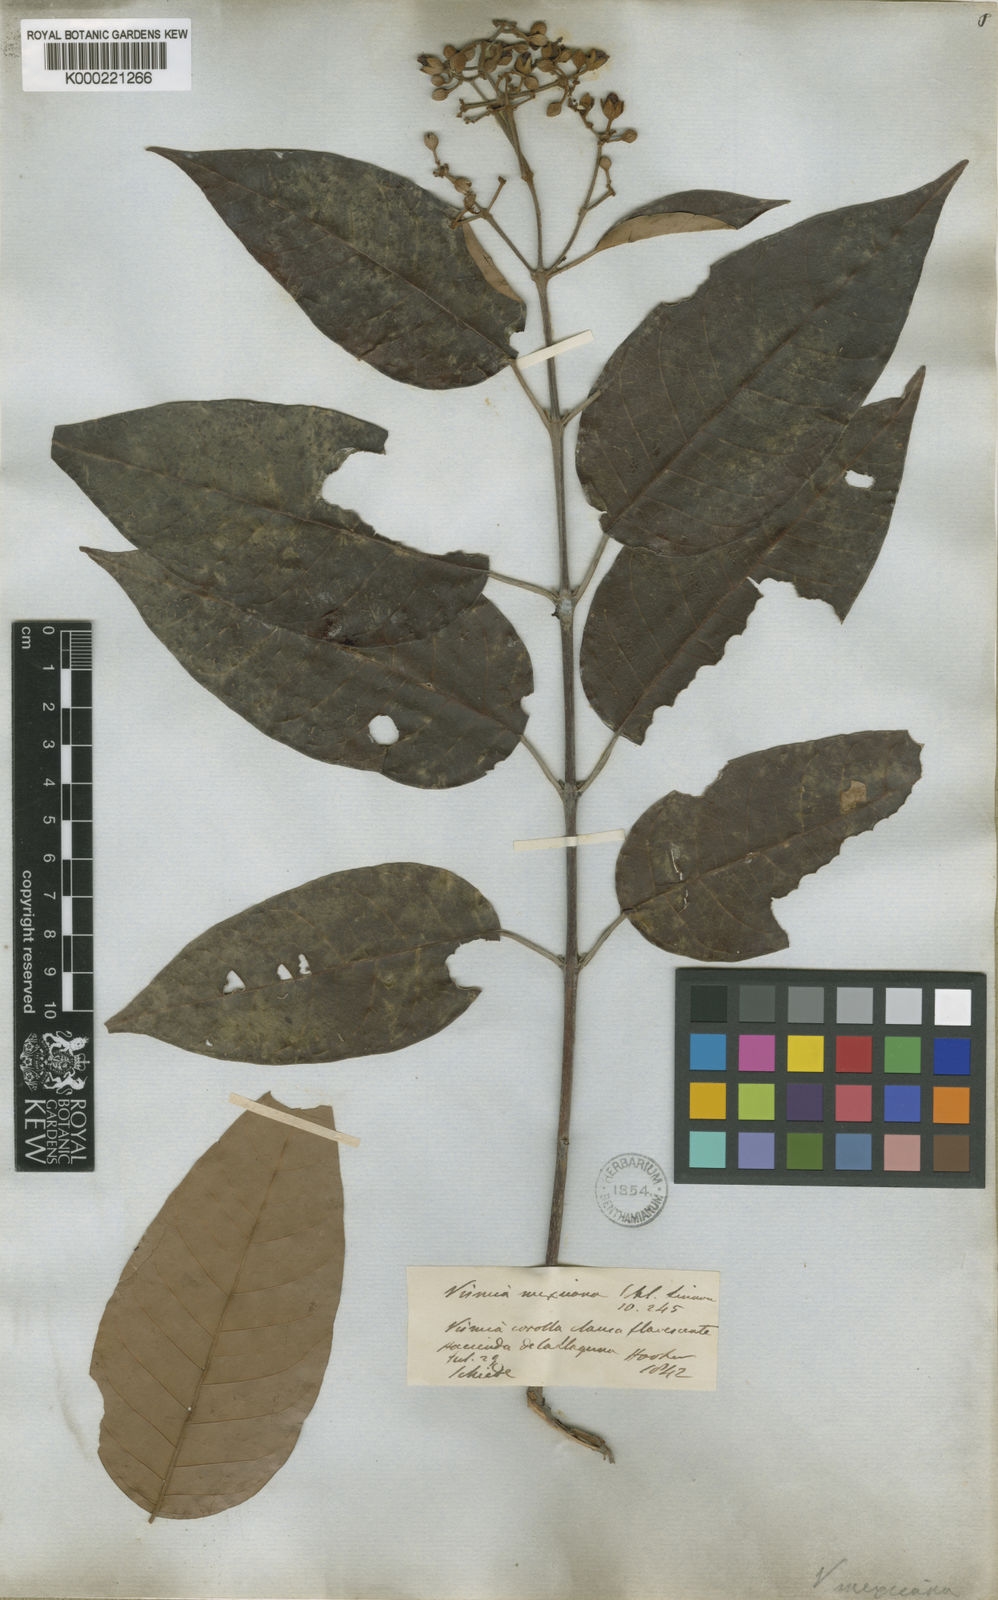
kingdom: Plantae
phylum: Tracheophyta
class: Magnoliopsida
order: Malpighiales
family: Hypericaceae
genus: Vismia
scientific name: Vismia baccifera
